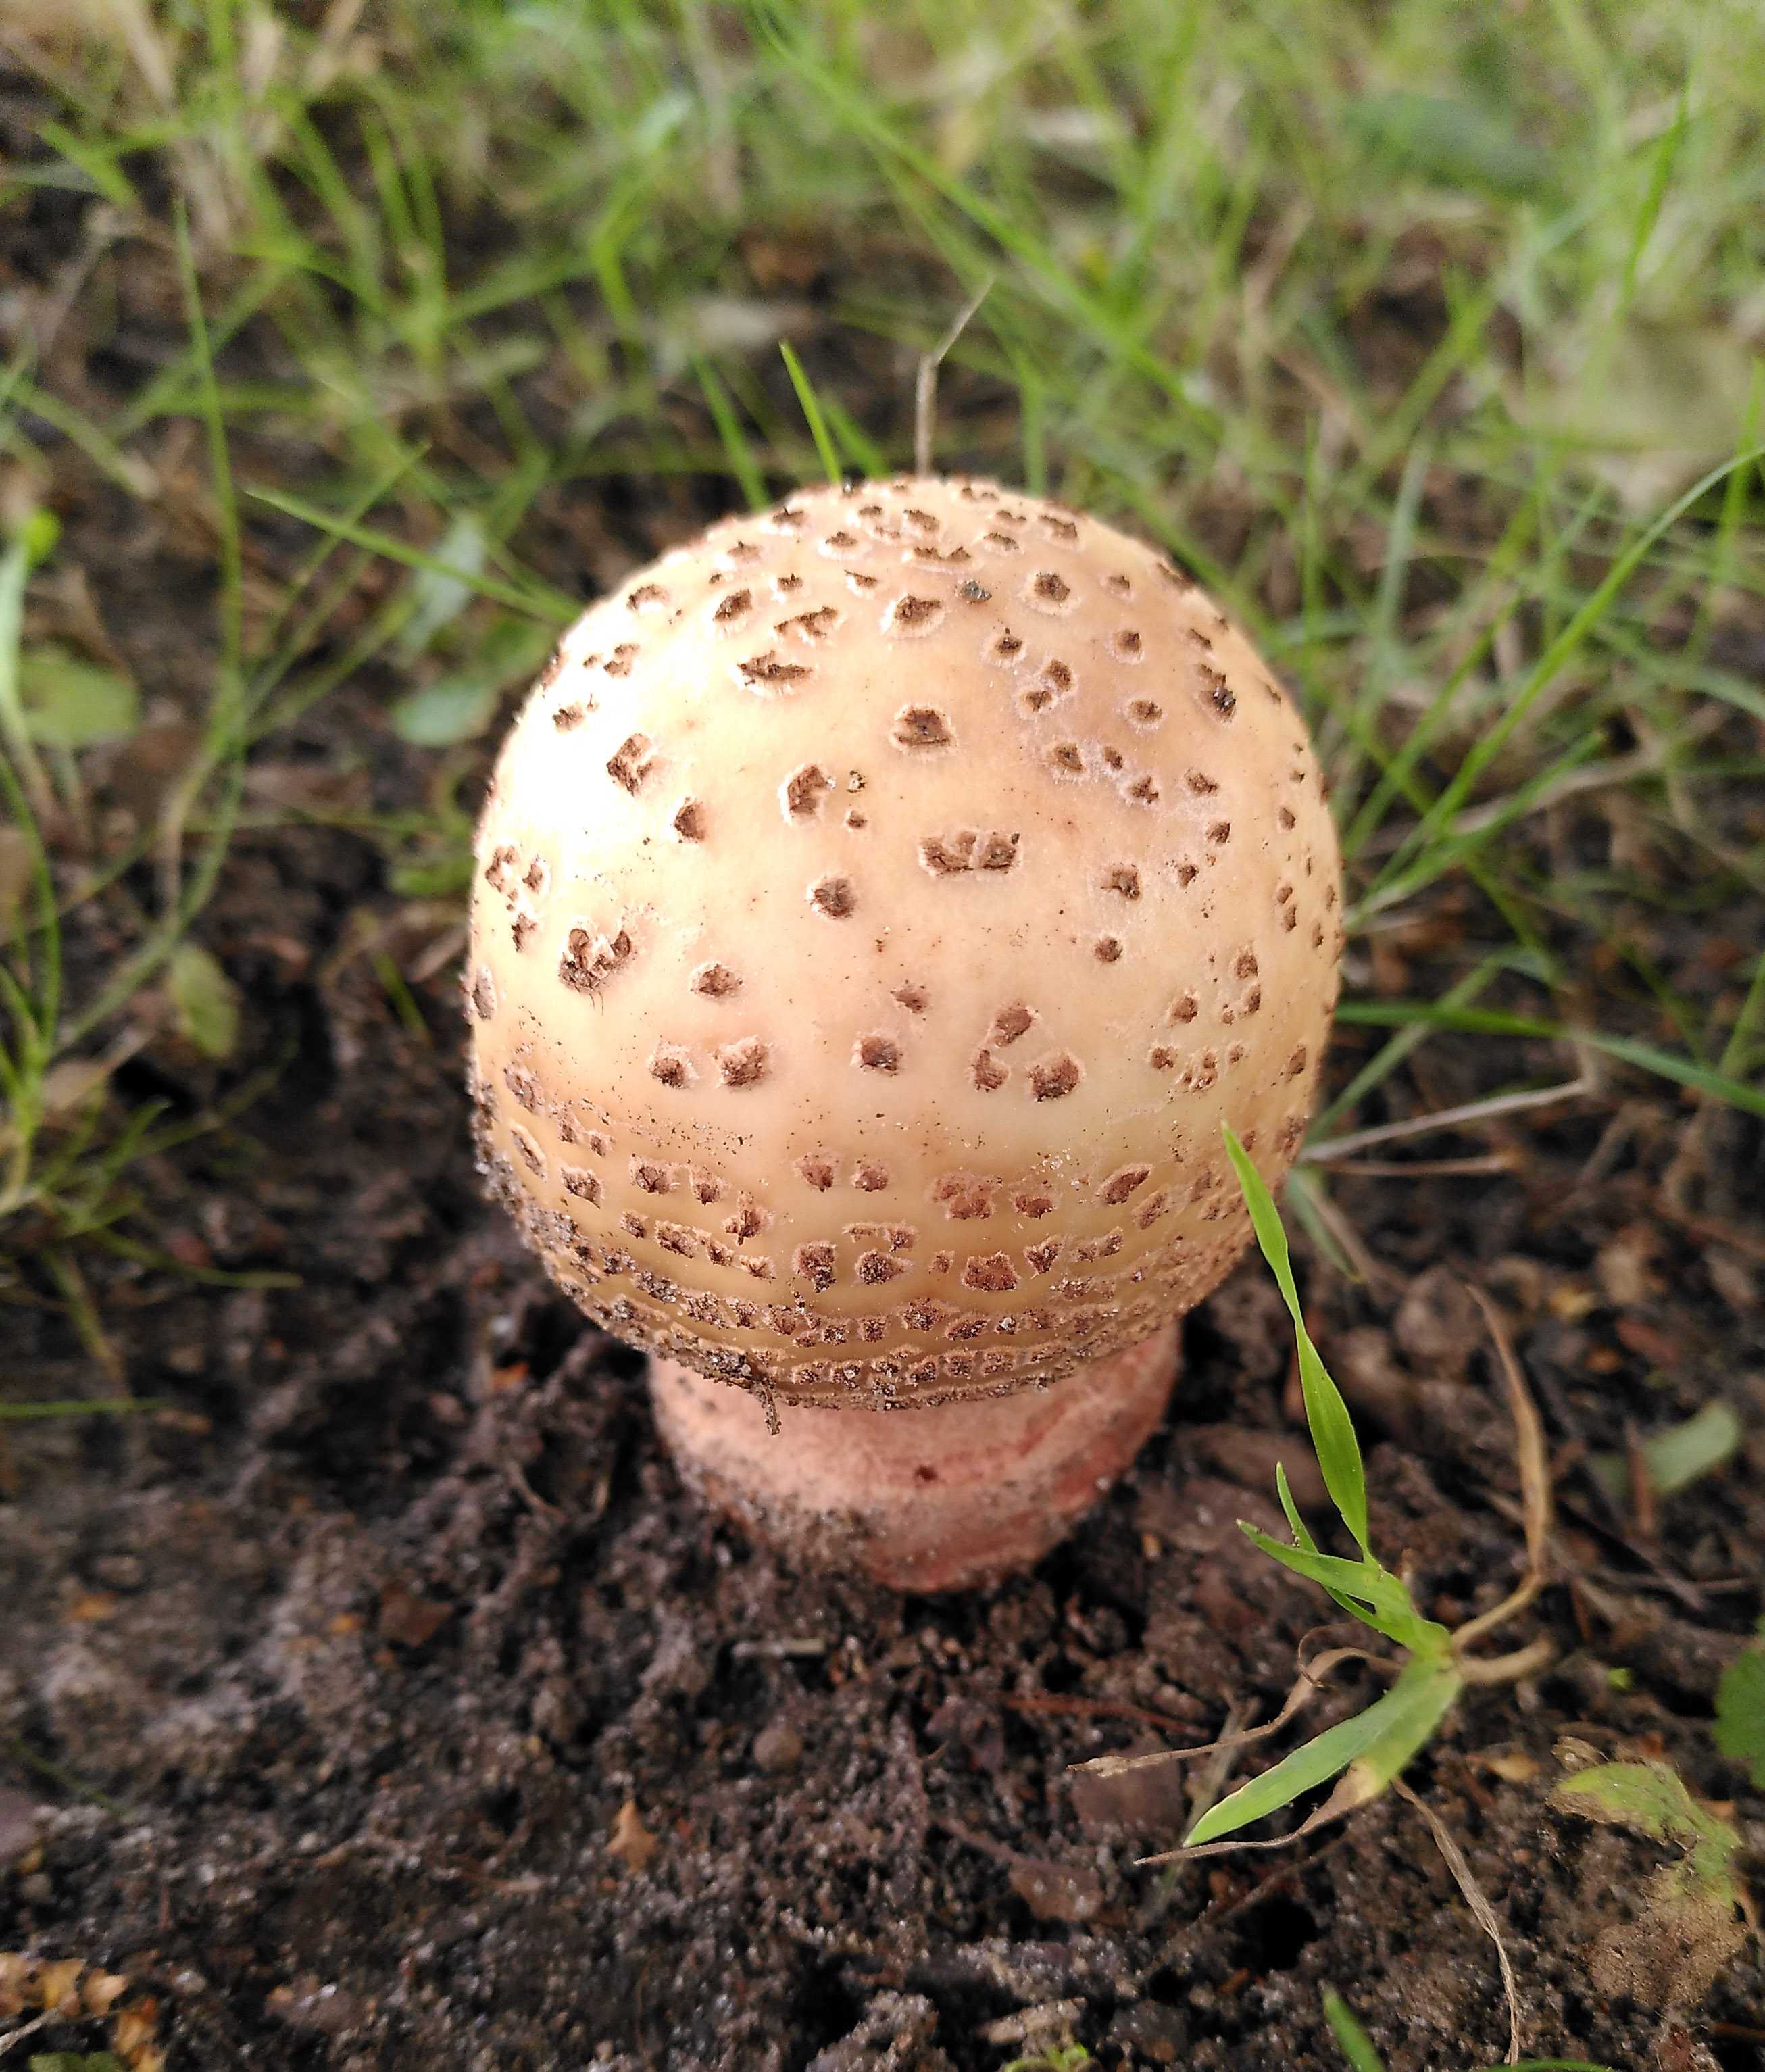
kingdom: Fungi
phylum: Basidiomycota
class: Agaricomycetes
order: Agaricales
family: Amanitaceae
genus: Amanita
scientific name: Amanita rubescens
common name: rødmende fluesvamp
